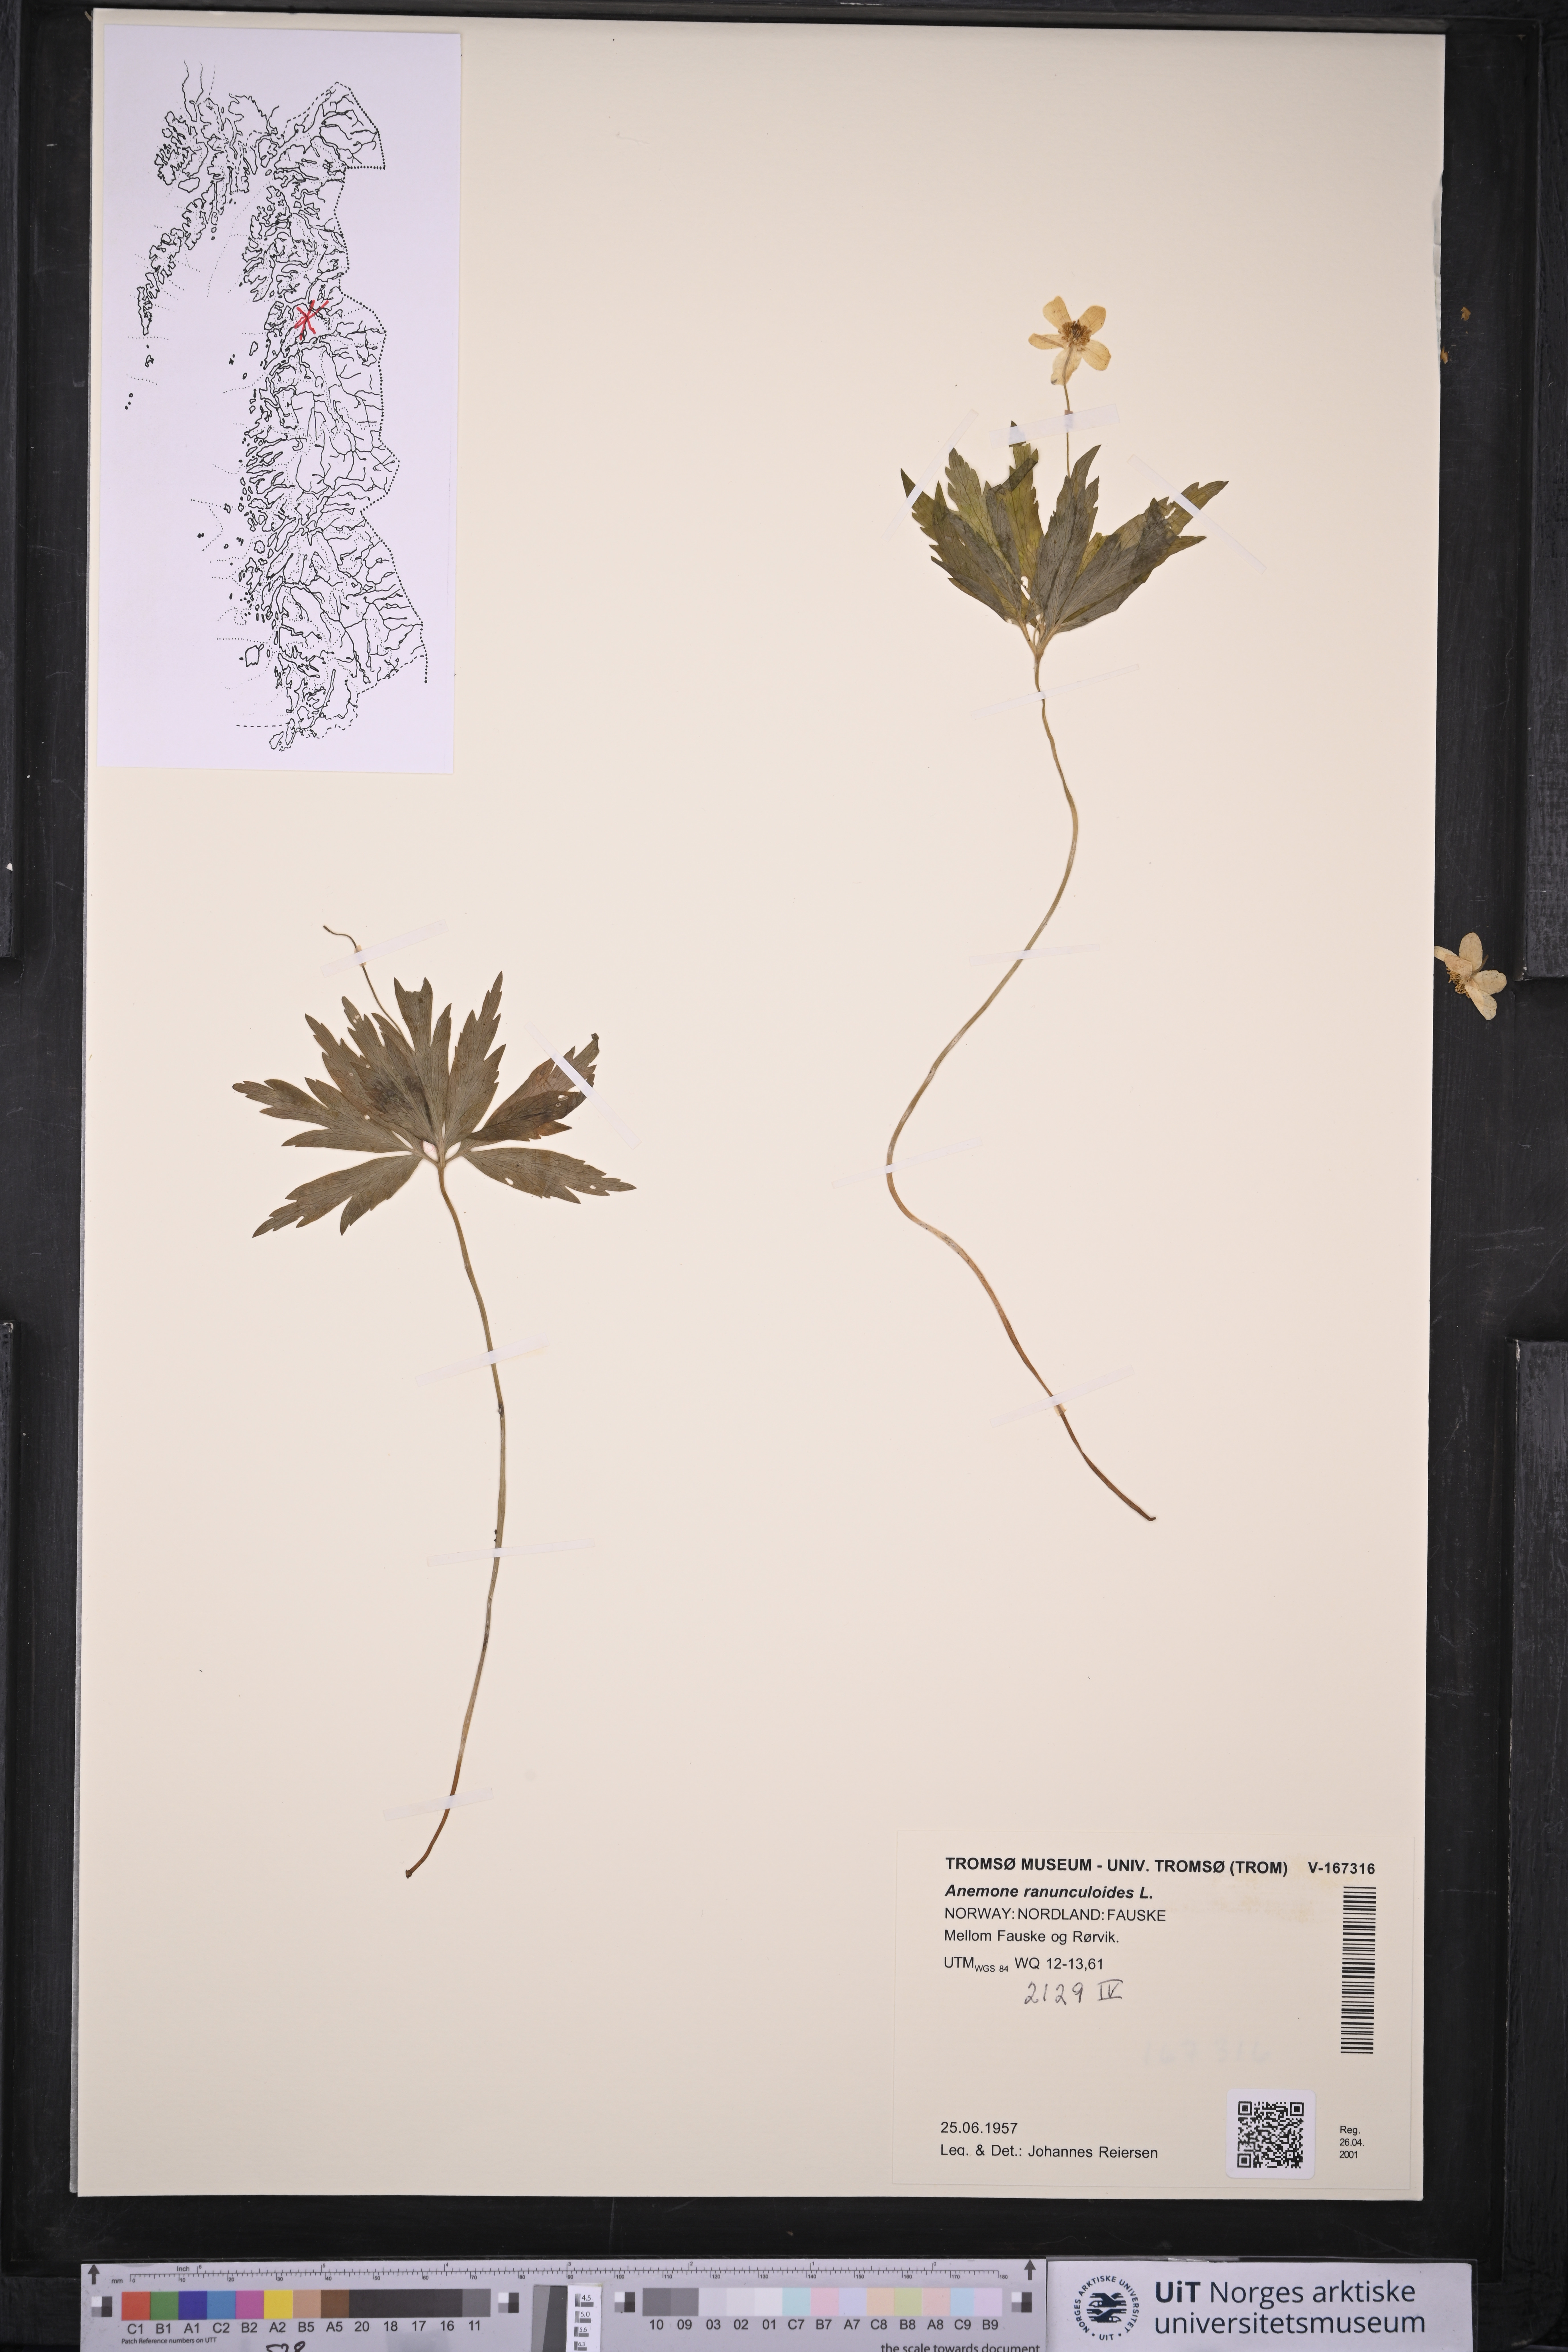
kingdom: Plantae
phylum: Tracheophyta
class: Magnoliopsida
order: Ranunculales
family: Ranunculaceae
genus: Anemone
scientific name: Anemone ranunculoides
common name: Yellow anemone
